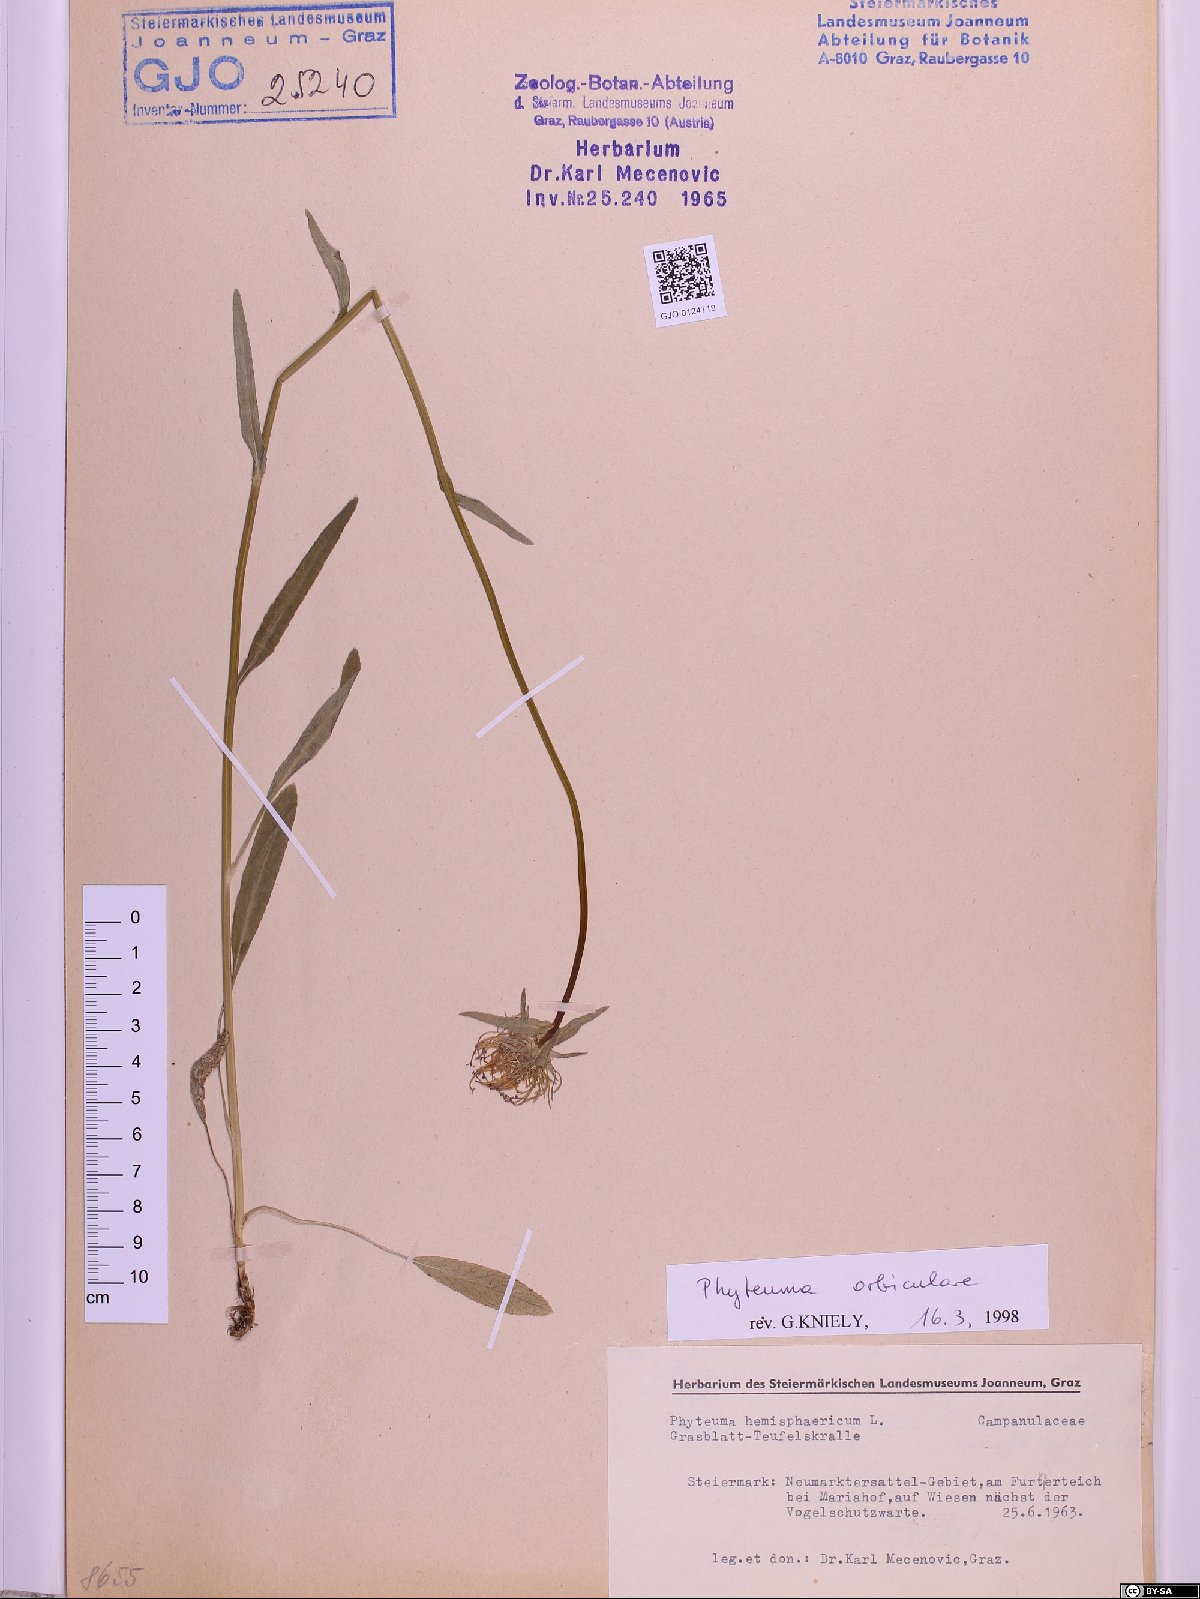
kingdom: Plantae
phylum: Tracheophyta
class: Magnoliopsida
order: Asterales
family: Campanulaceae
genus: Phyteuma
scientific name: Phyteuma orbiculare
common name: Round-headed rampion
